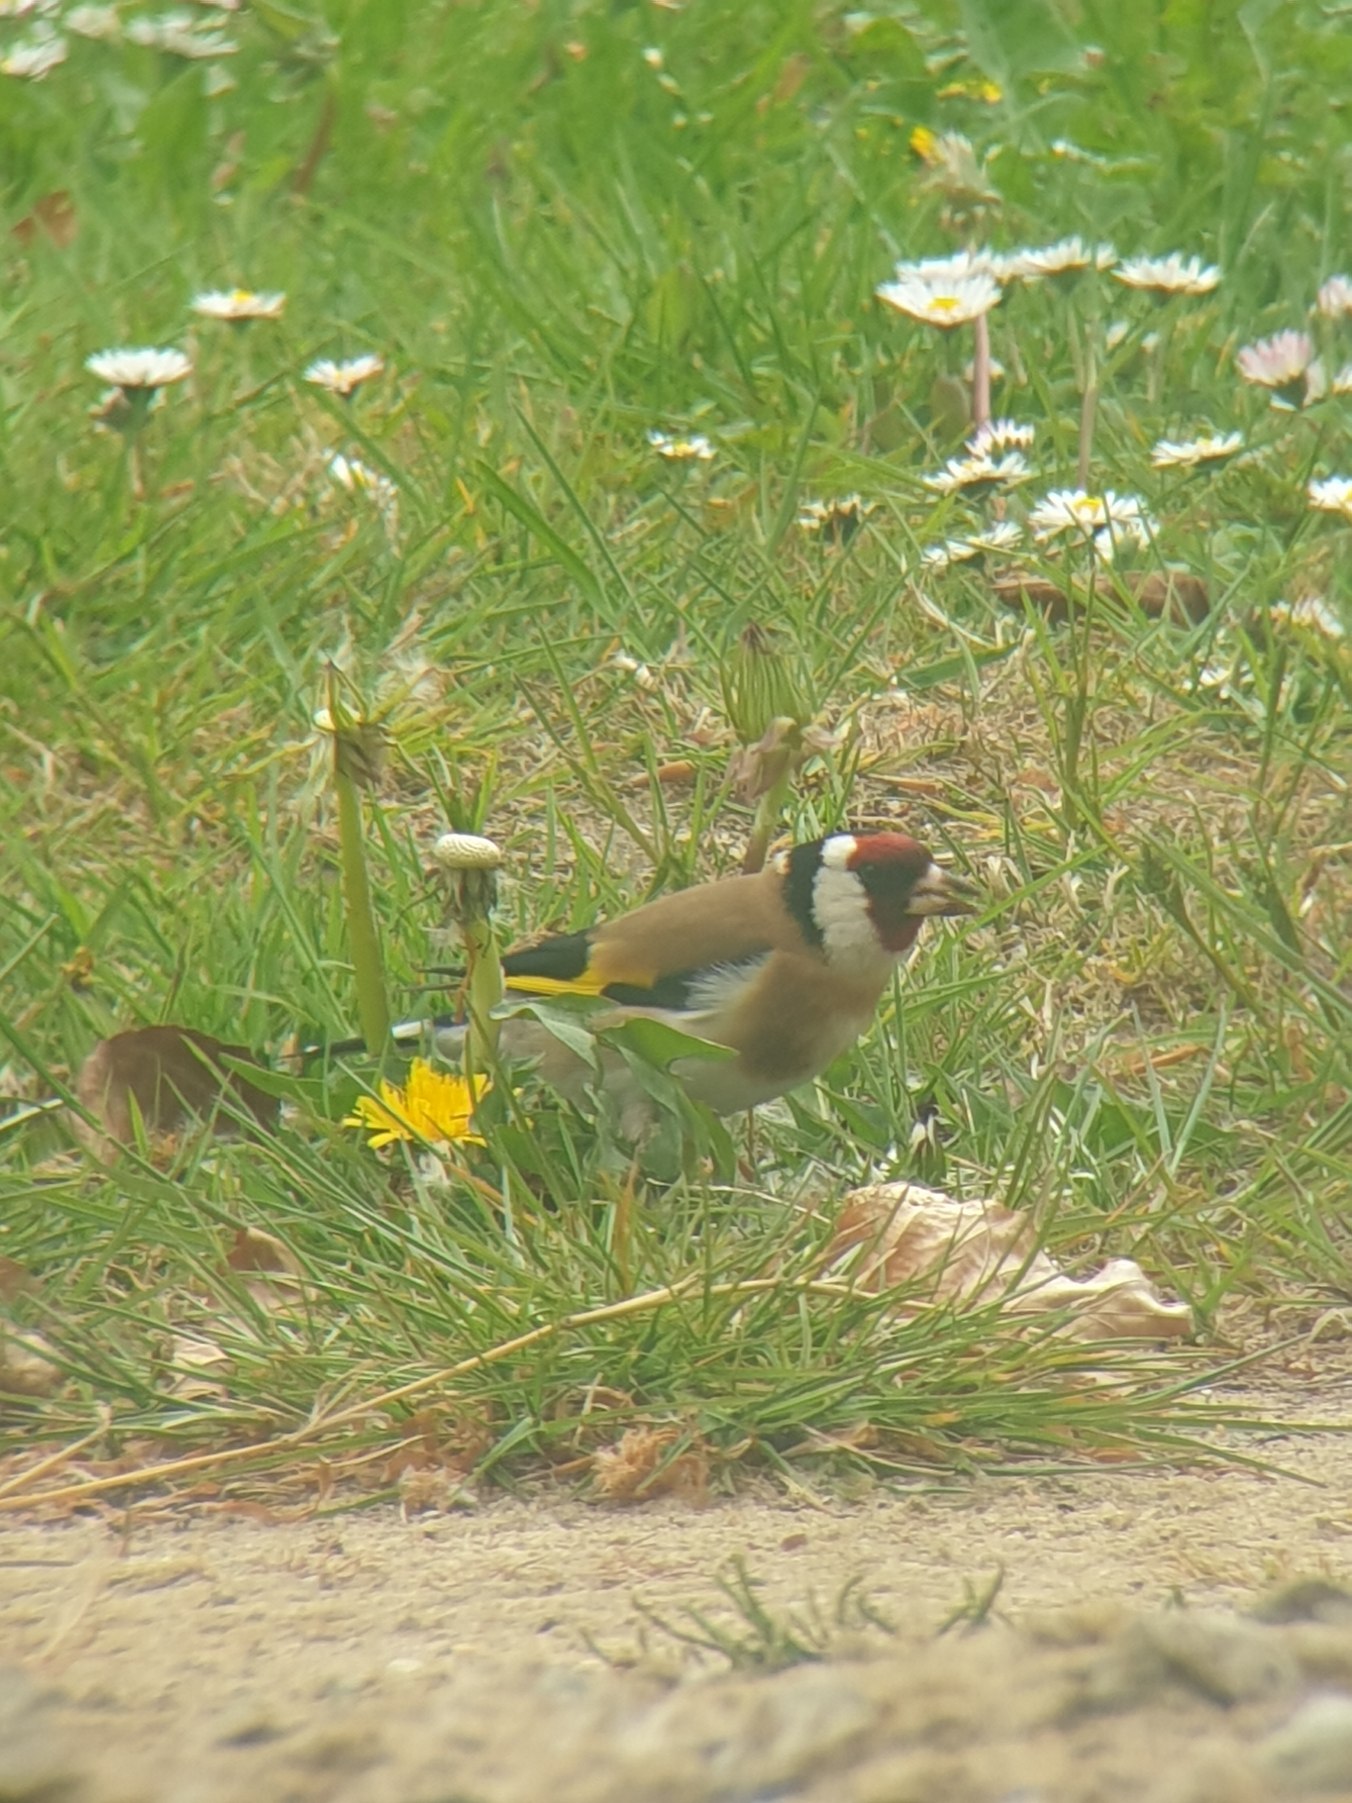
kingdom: Animalia
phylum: Chordata
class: Aves
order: Passeriformes
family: Fringillidae
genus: Carduelis
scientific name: Carduelis carduelis
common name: Stillits
